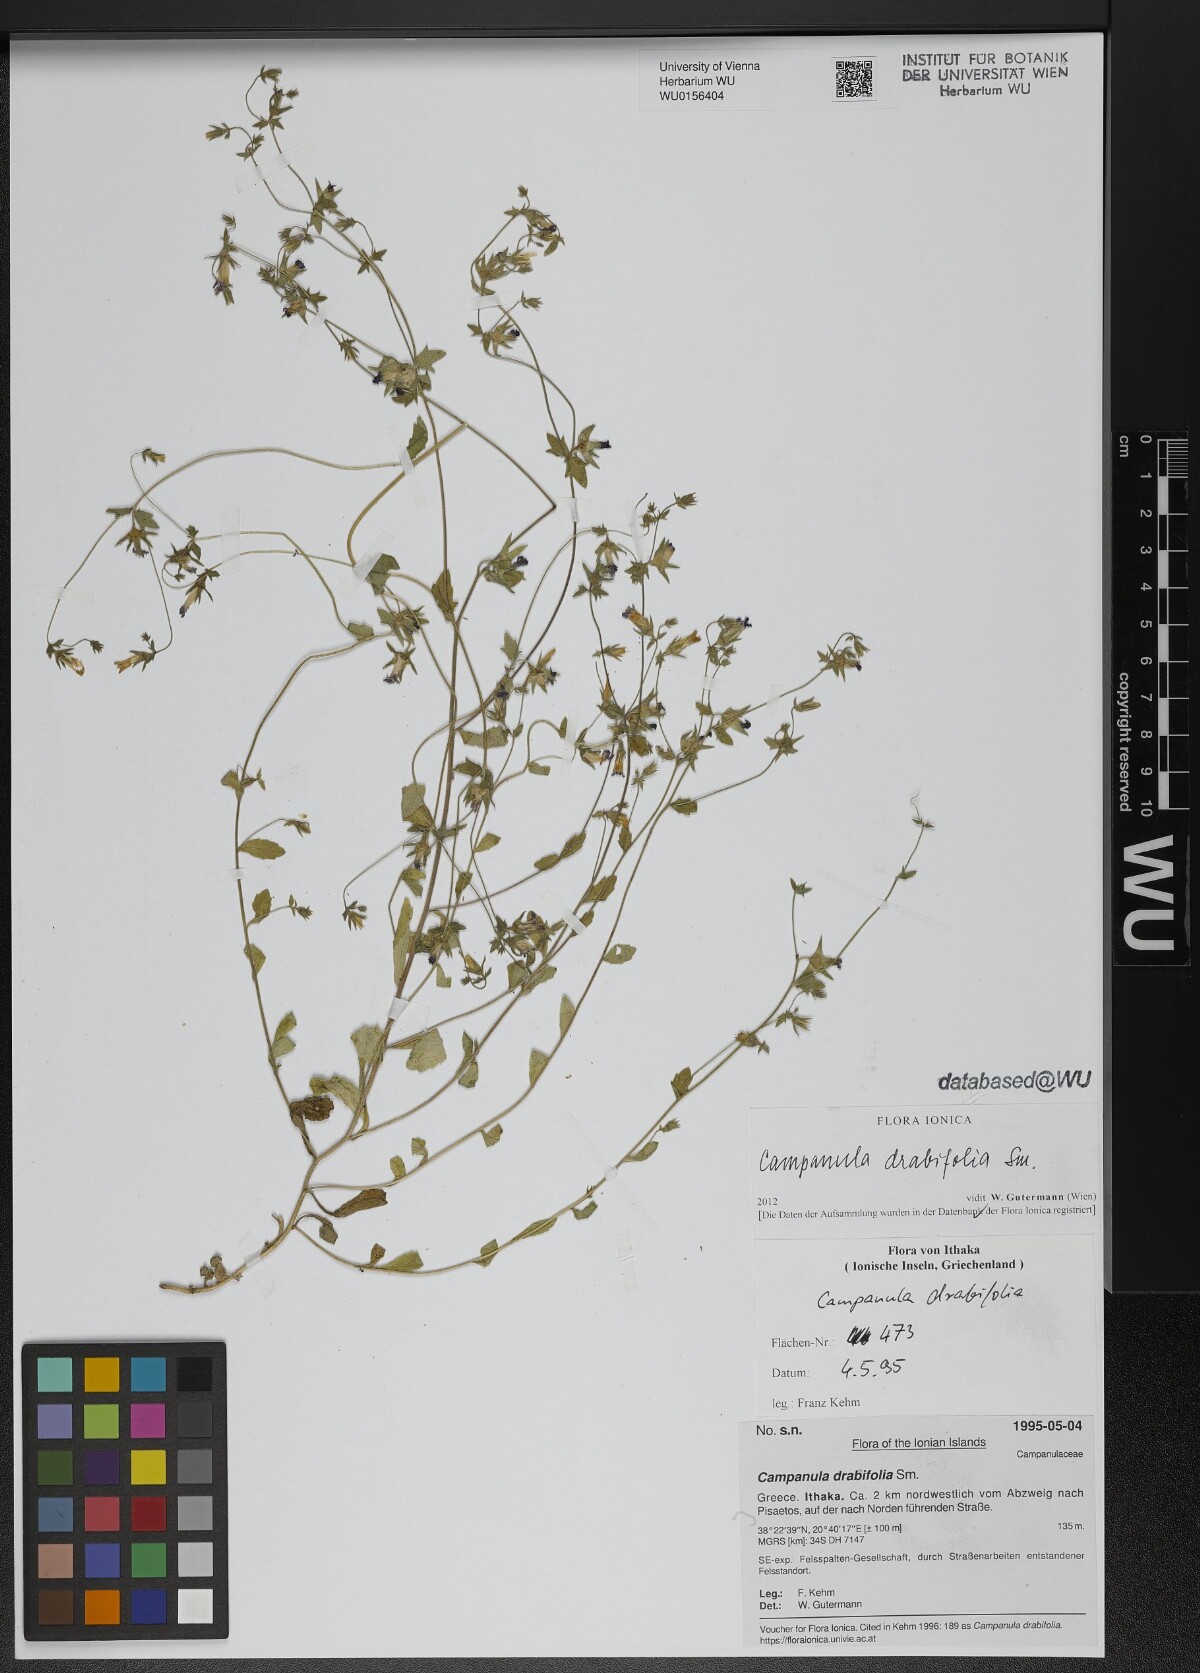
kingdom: Plantae
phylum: Tracheophyta
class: Magnoliopsida
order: Asterales
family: Campanulaceae
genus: Campanula
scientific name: Campanula drabifolia
